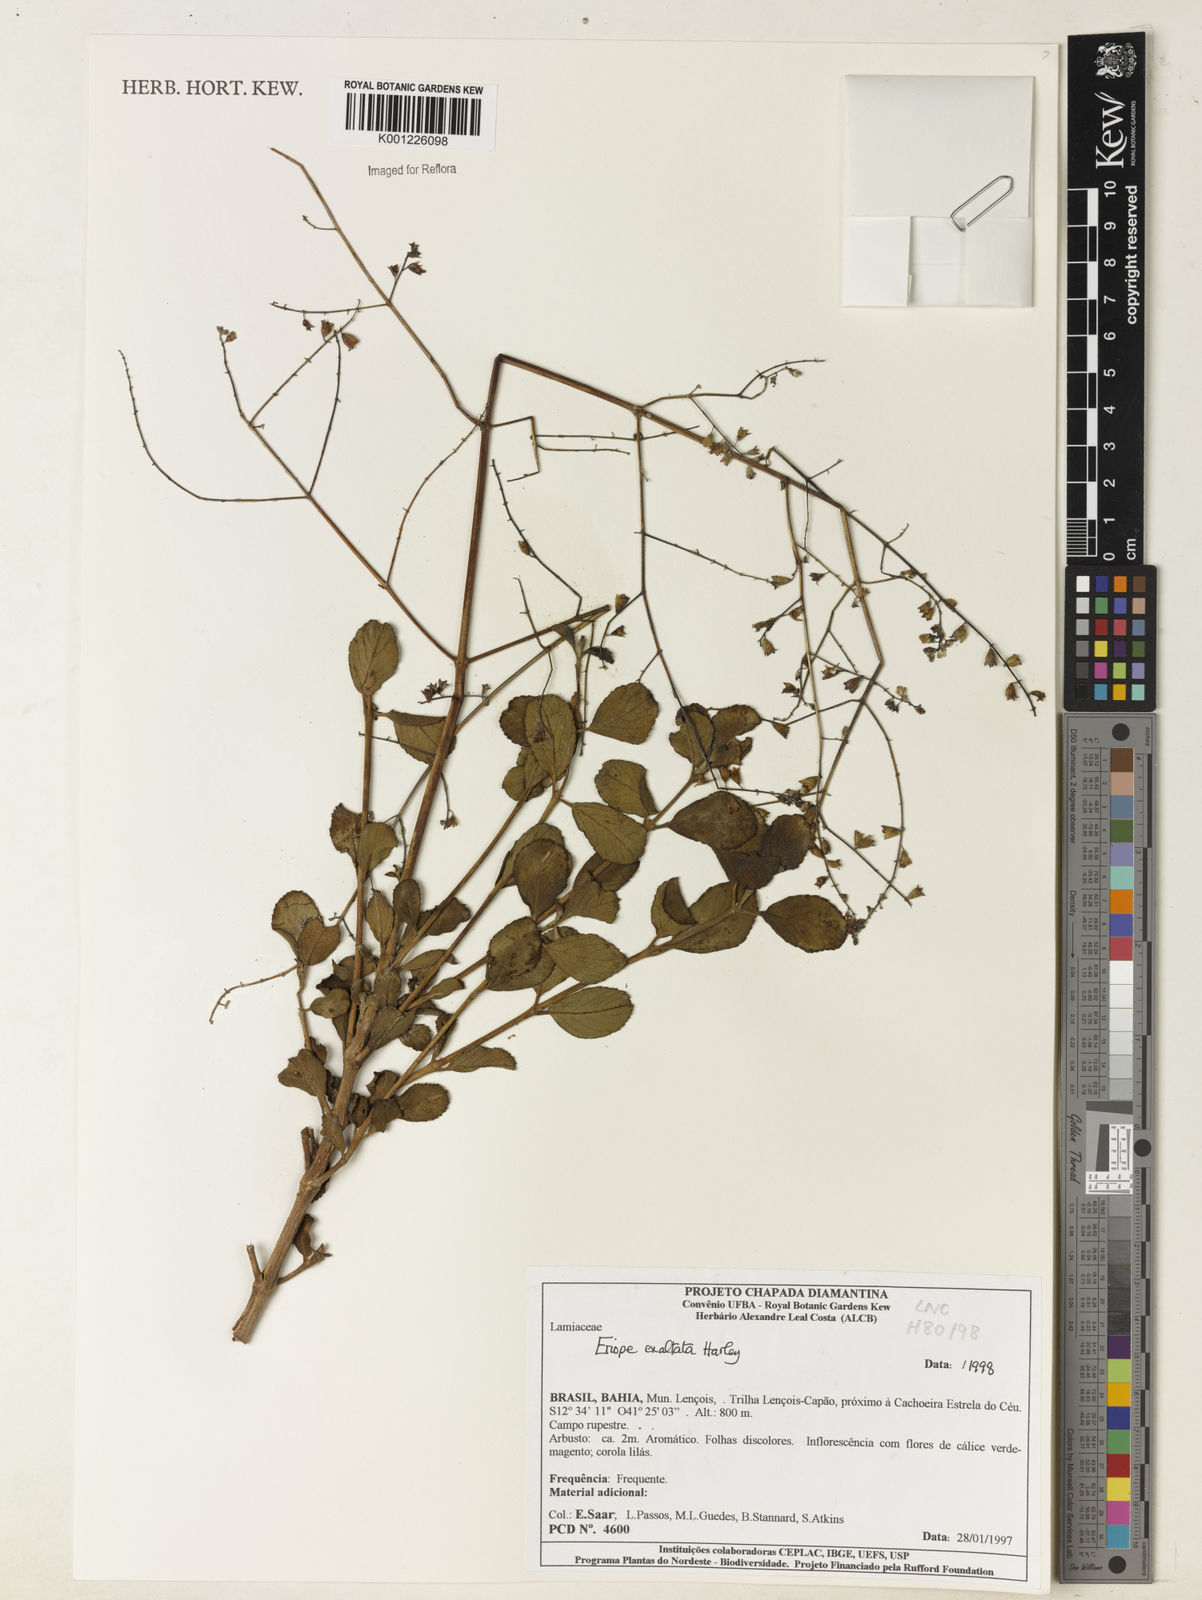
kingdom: Plantae
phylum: Tracheophyta
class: Magnoliopsida
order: Lamiales
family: Lamiaceae
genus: Eriope
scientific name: Eriope exaltata
